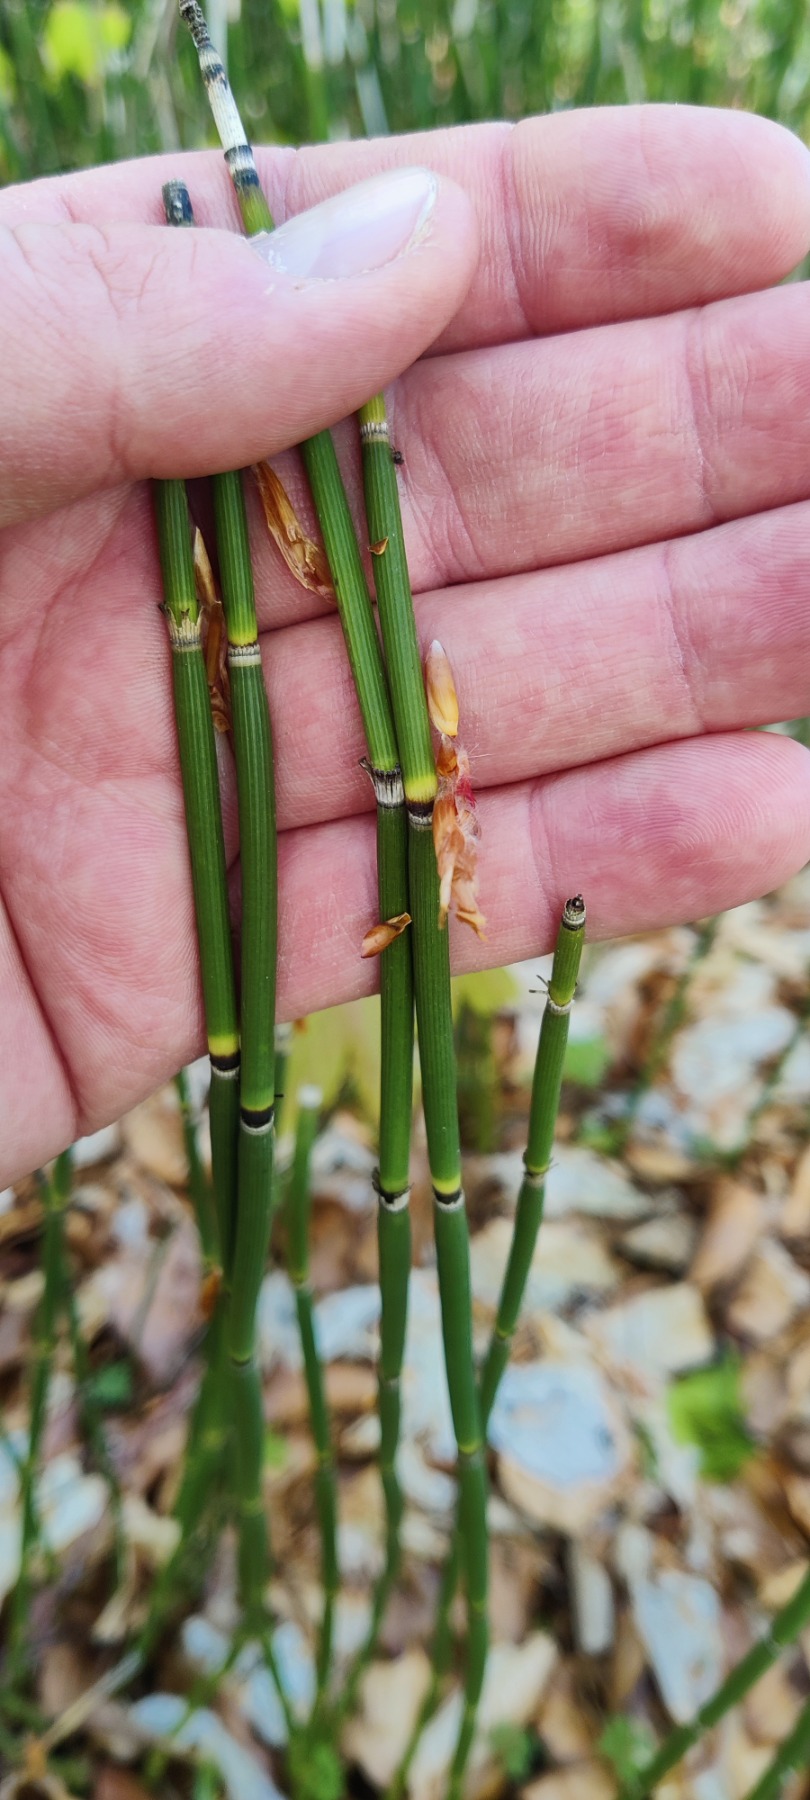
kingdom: Plantae
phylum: Tracheophyta
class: Polypodiopsida
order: Equisetales
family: Equisetaceae
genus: Equisetum
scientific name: Equisetum hyemale
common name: Skavgræs
